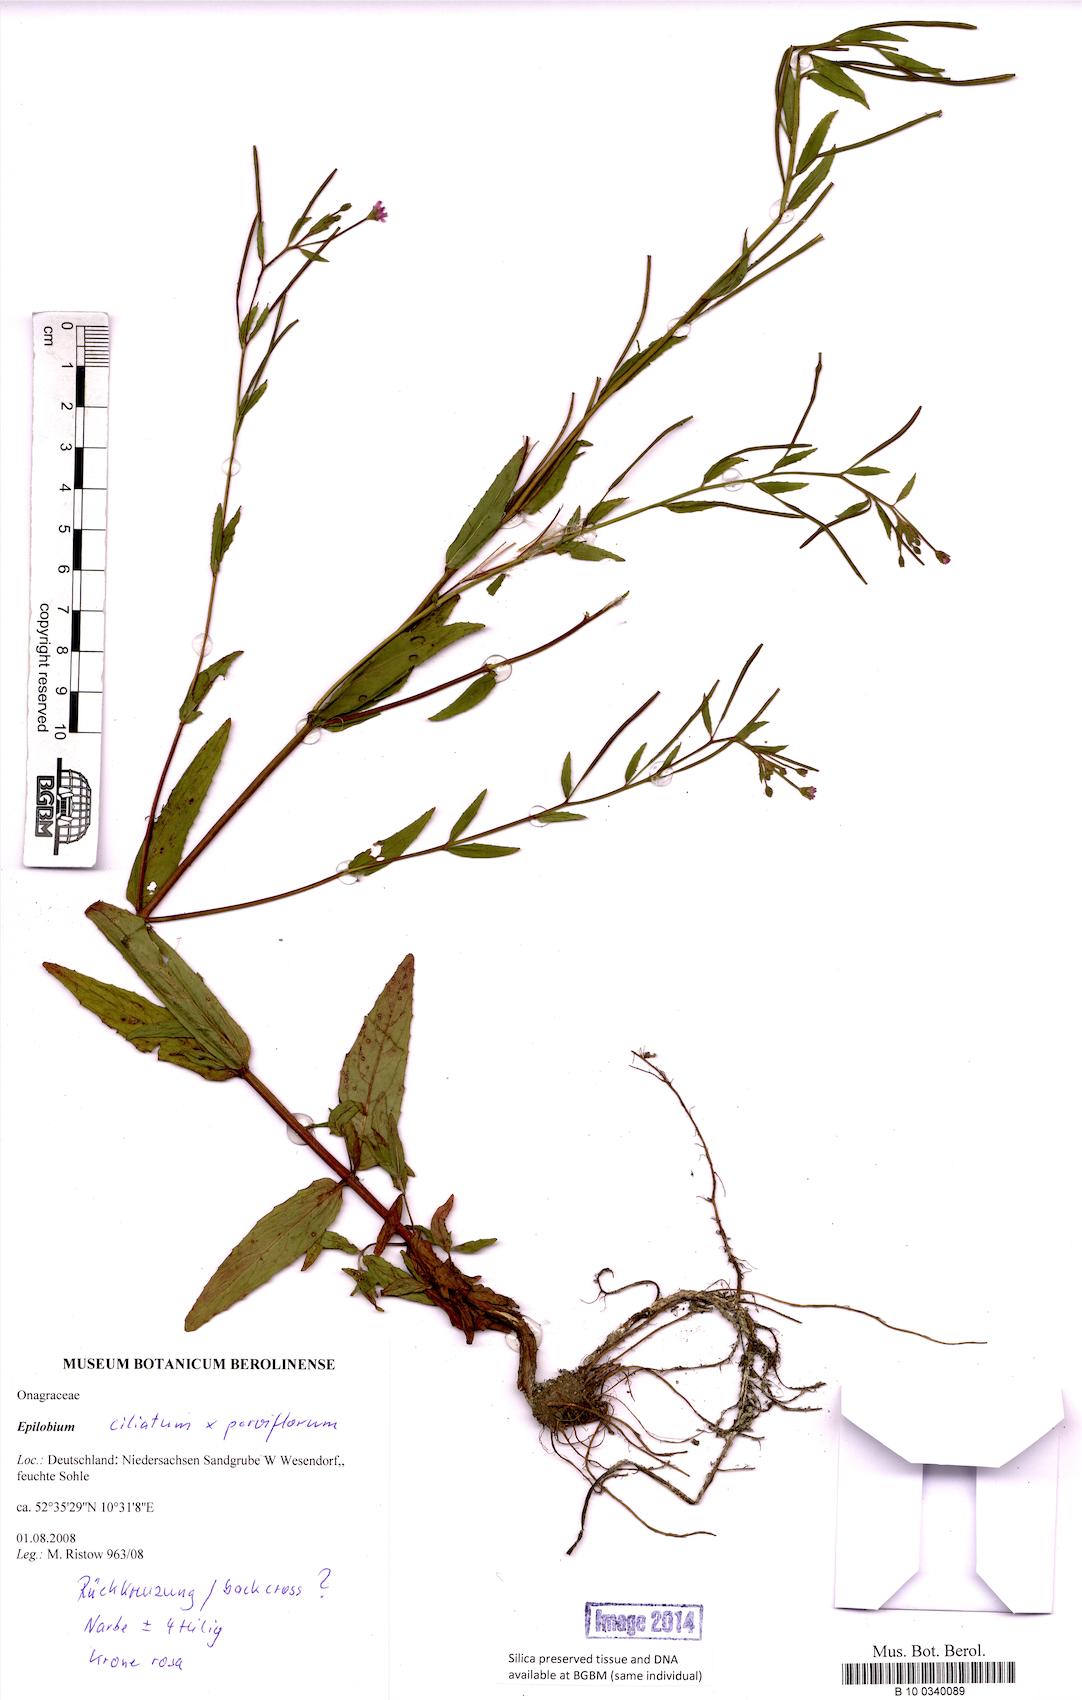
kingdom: Animalia
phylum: Arthropoda
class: Insecta
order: Hymenoptera
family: Megachilidae
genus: Epilobium
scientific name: Epilobium
